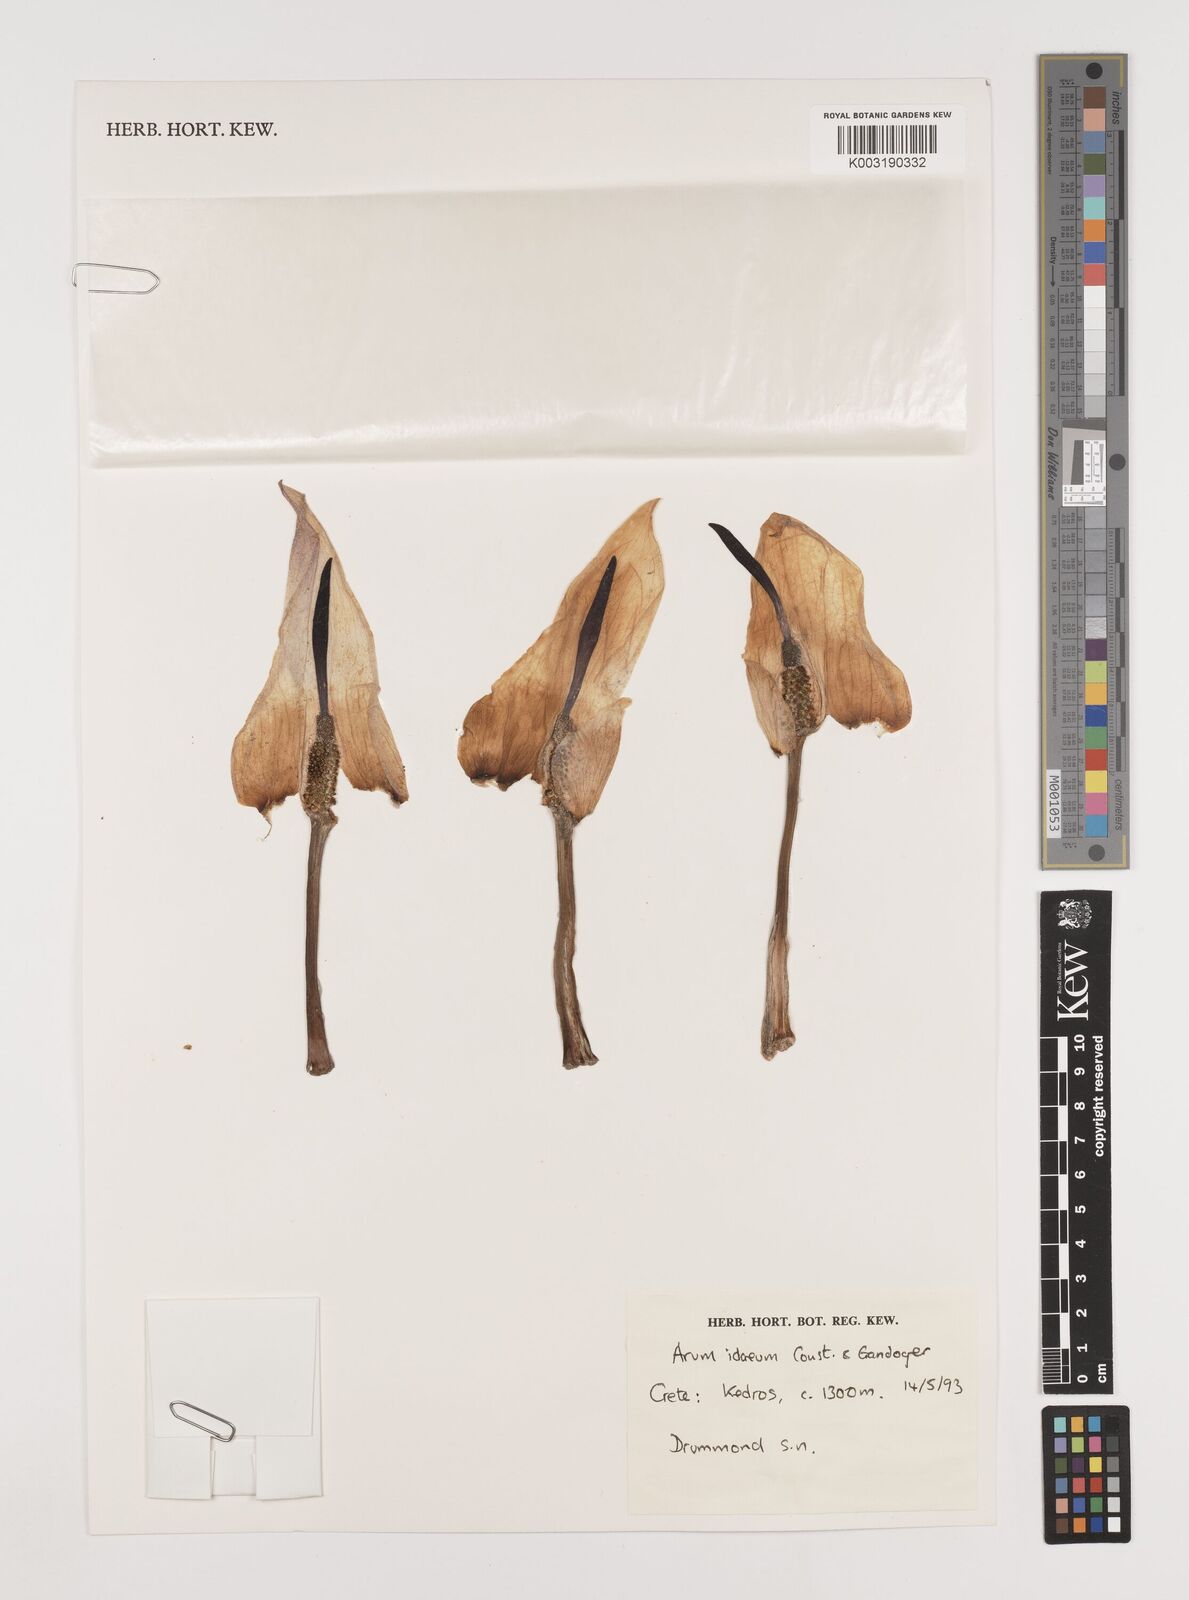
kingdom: Plantae
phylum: Tracheophyta
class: Liliopsida
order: Alismatales
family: Araceae
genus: Arum
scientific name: Arum idaeum
